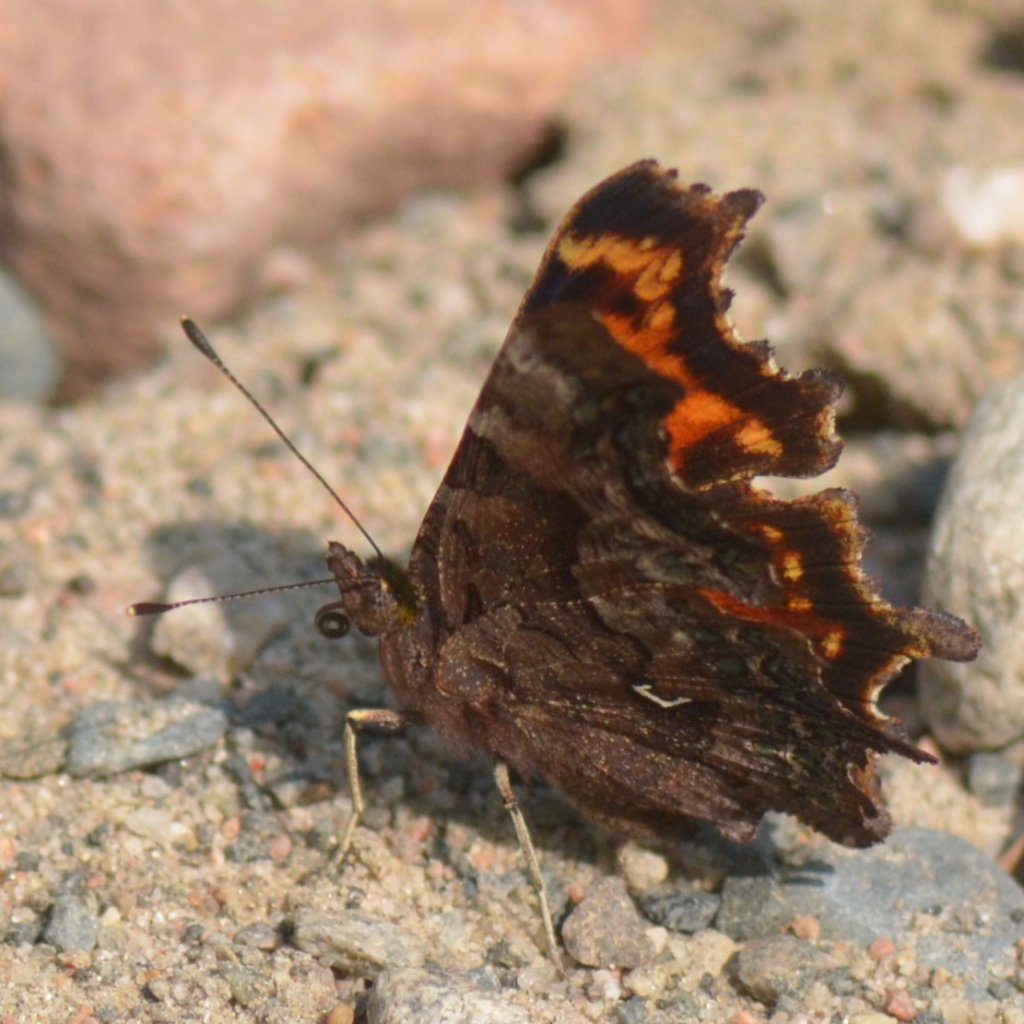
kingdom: Animalia
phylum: Arthropoda
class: Insecta
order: Lepidoptera
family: Nymphalidae
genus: Polygonia
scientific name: Polygonia faunus
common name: Green Comma
